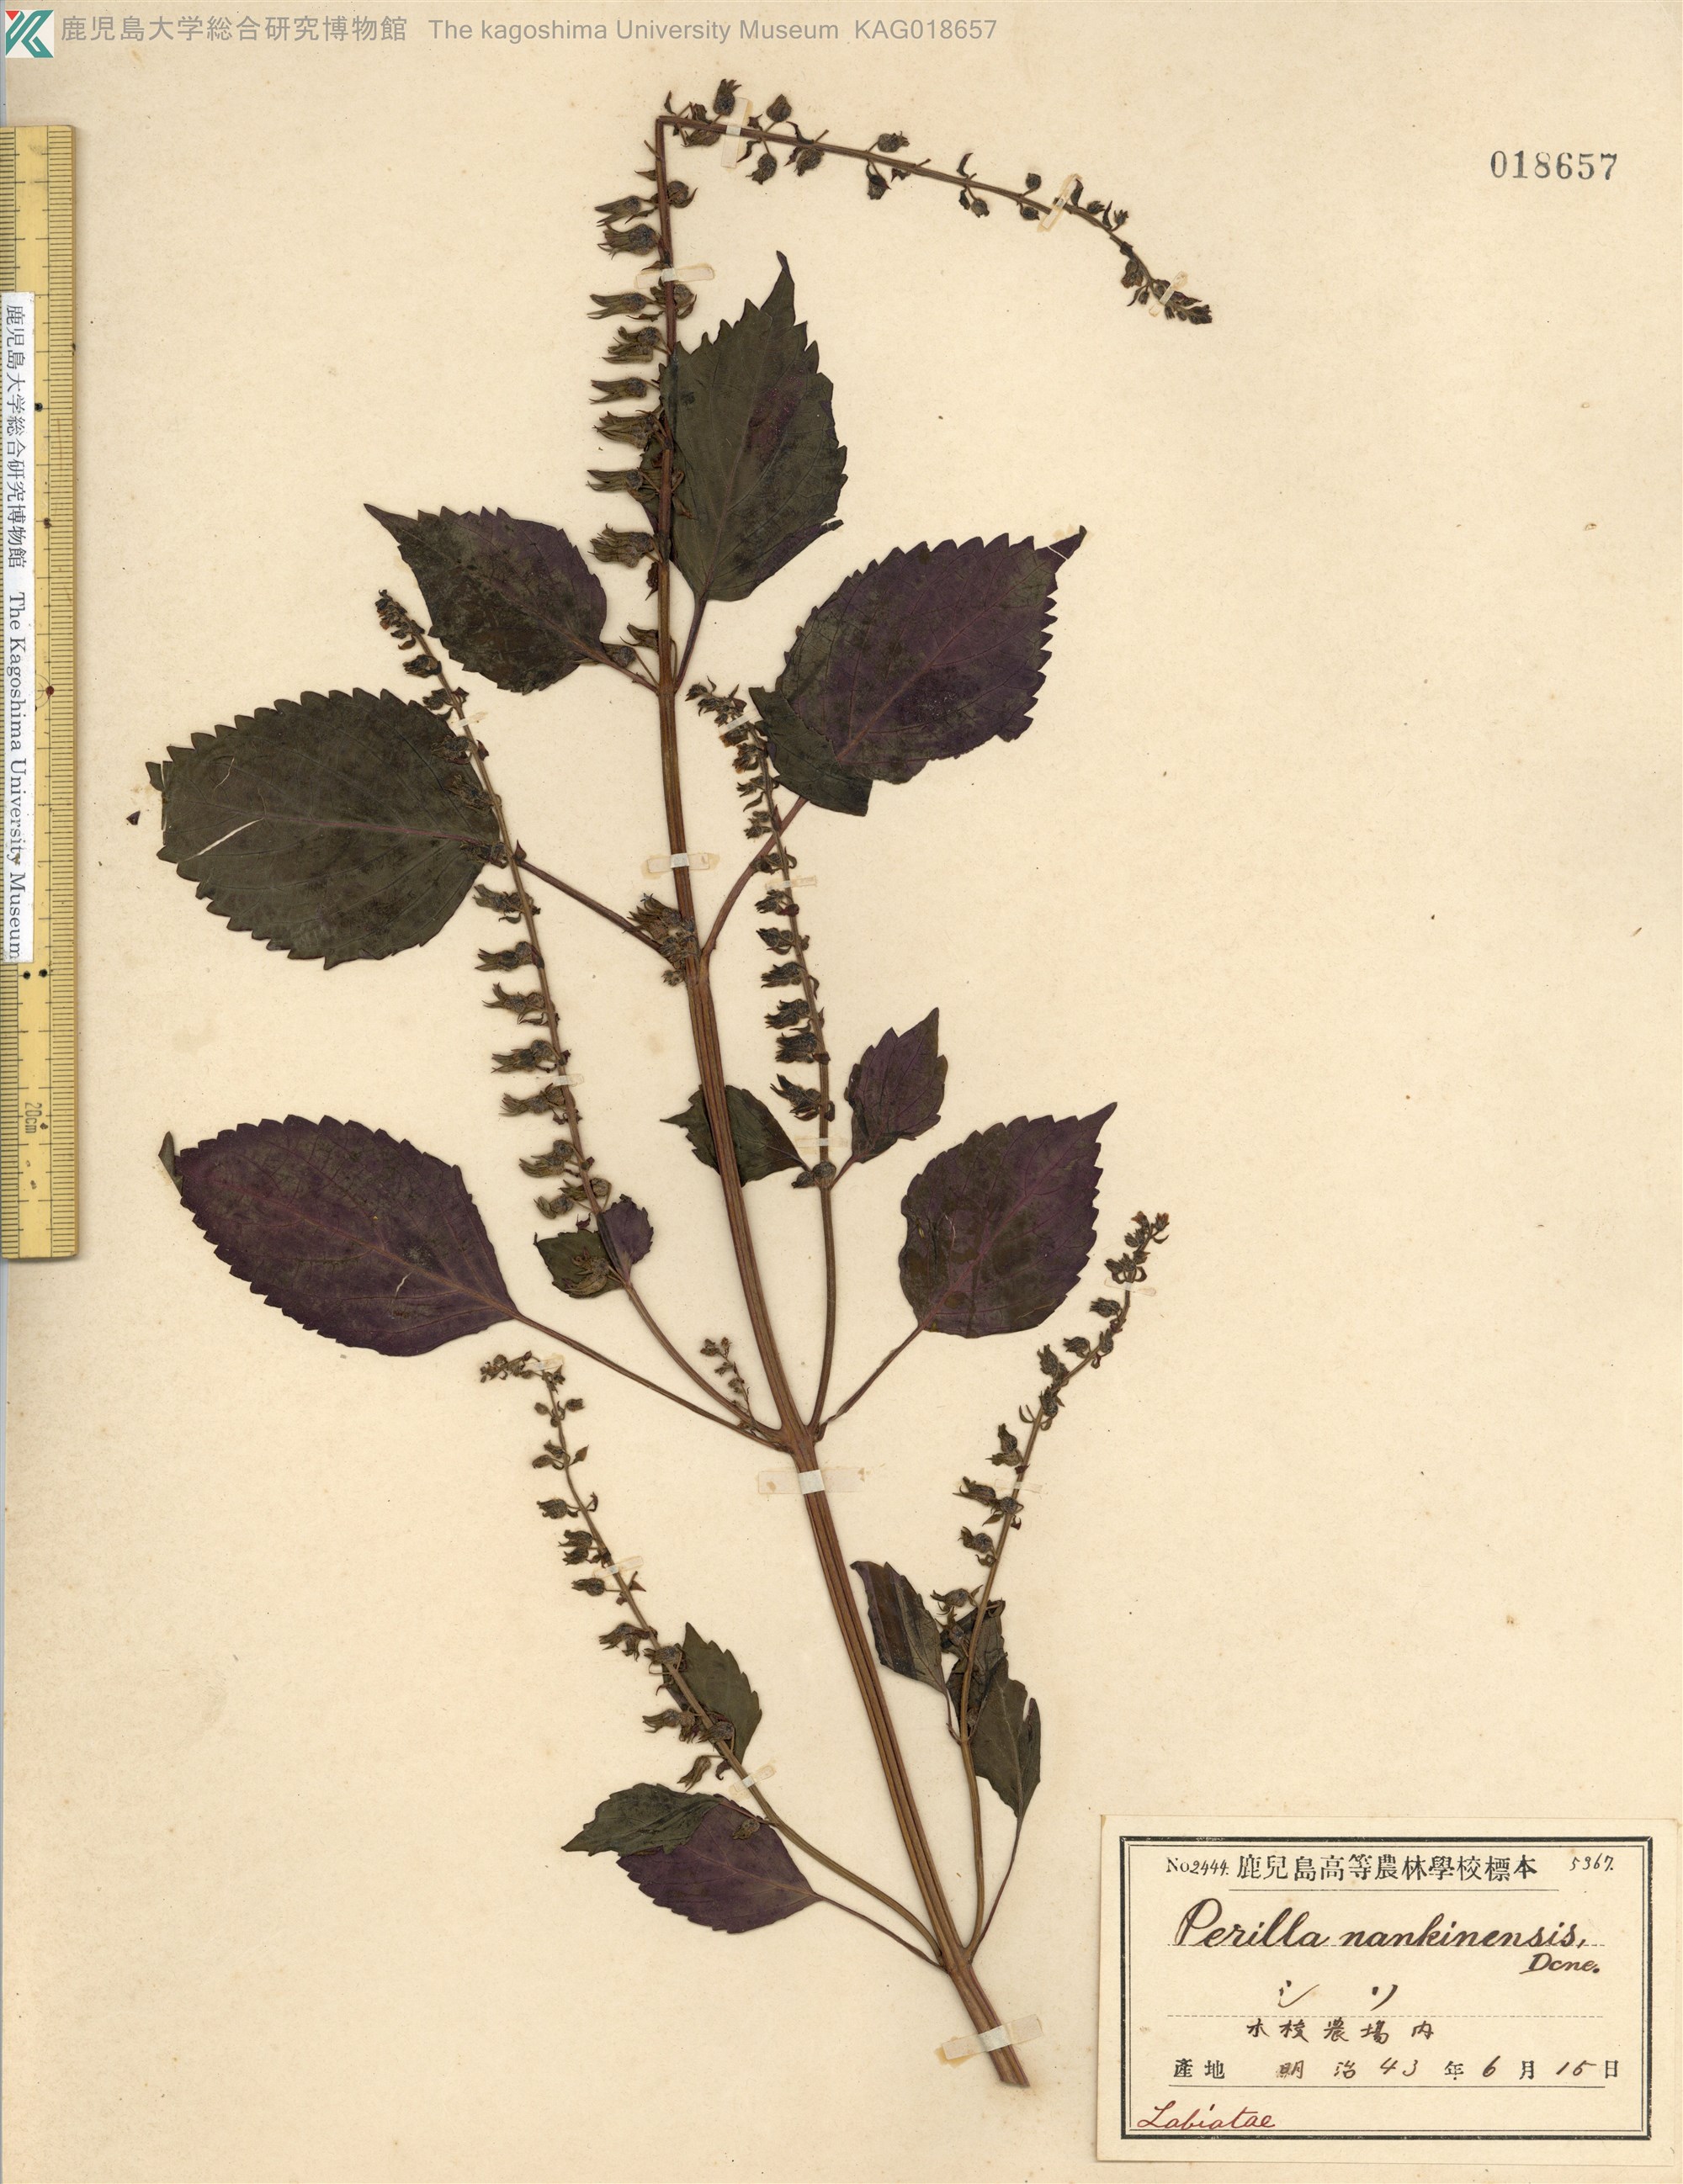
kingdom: Plantae
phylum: Tracheophyta
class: Magnoliopsida
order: Lamiales
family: Lamiaceae
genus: Perilla
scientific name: Perilla frutescens
